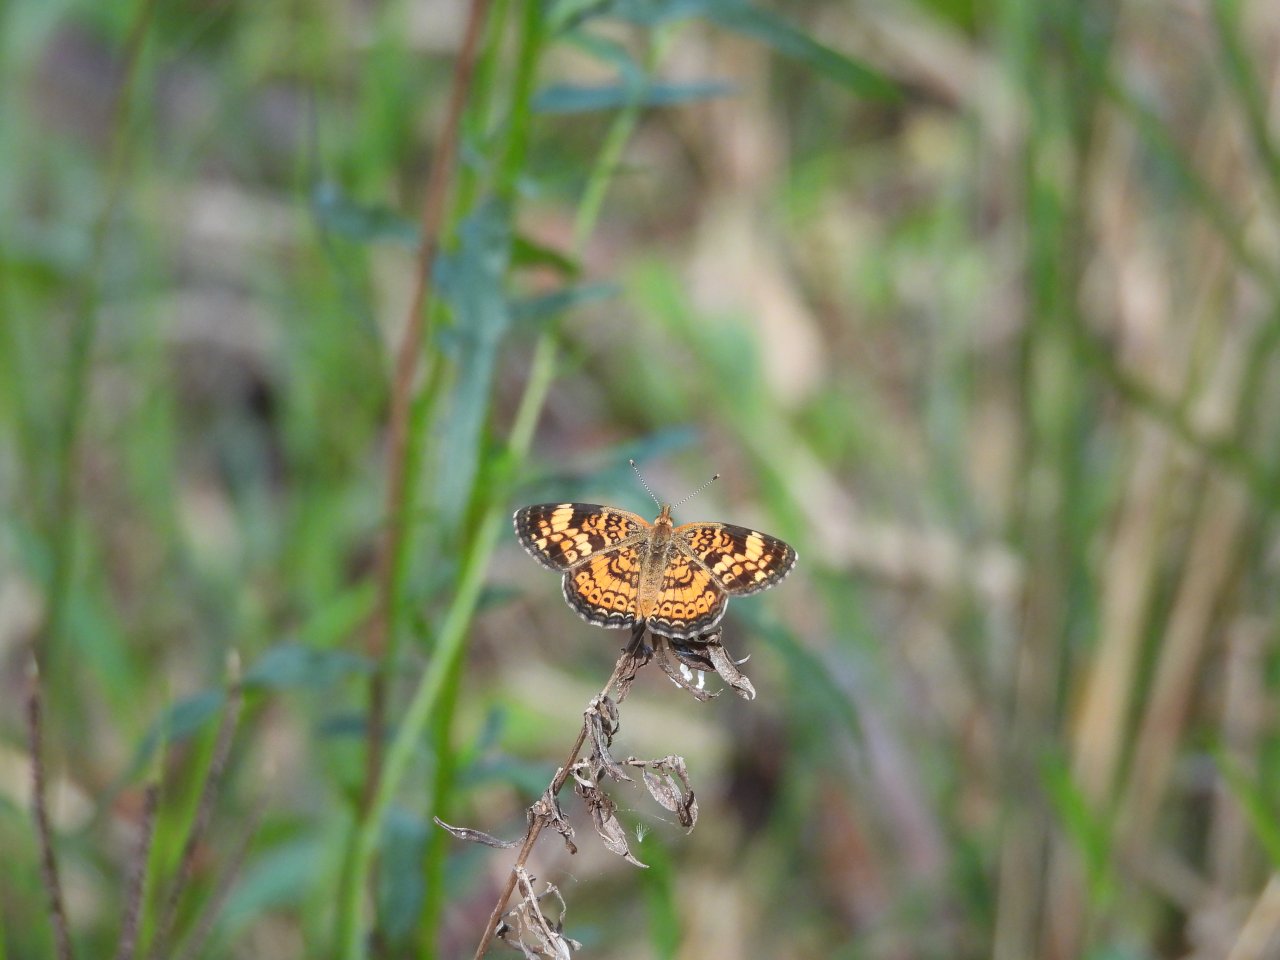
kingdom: Animalia
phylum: Arthropoda
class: Insecta
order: Lepidoptera
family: Nymphalidae
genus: Phyciodes
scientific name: Phyciodes tharos
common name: Pearl Crescent
